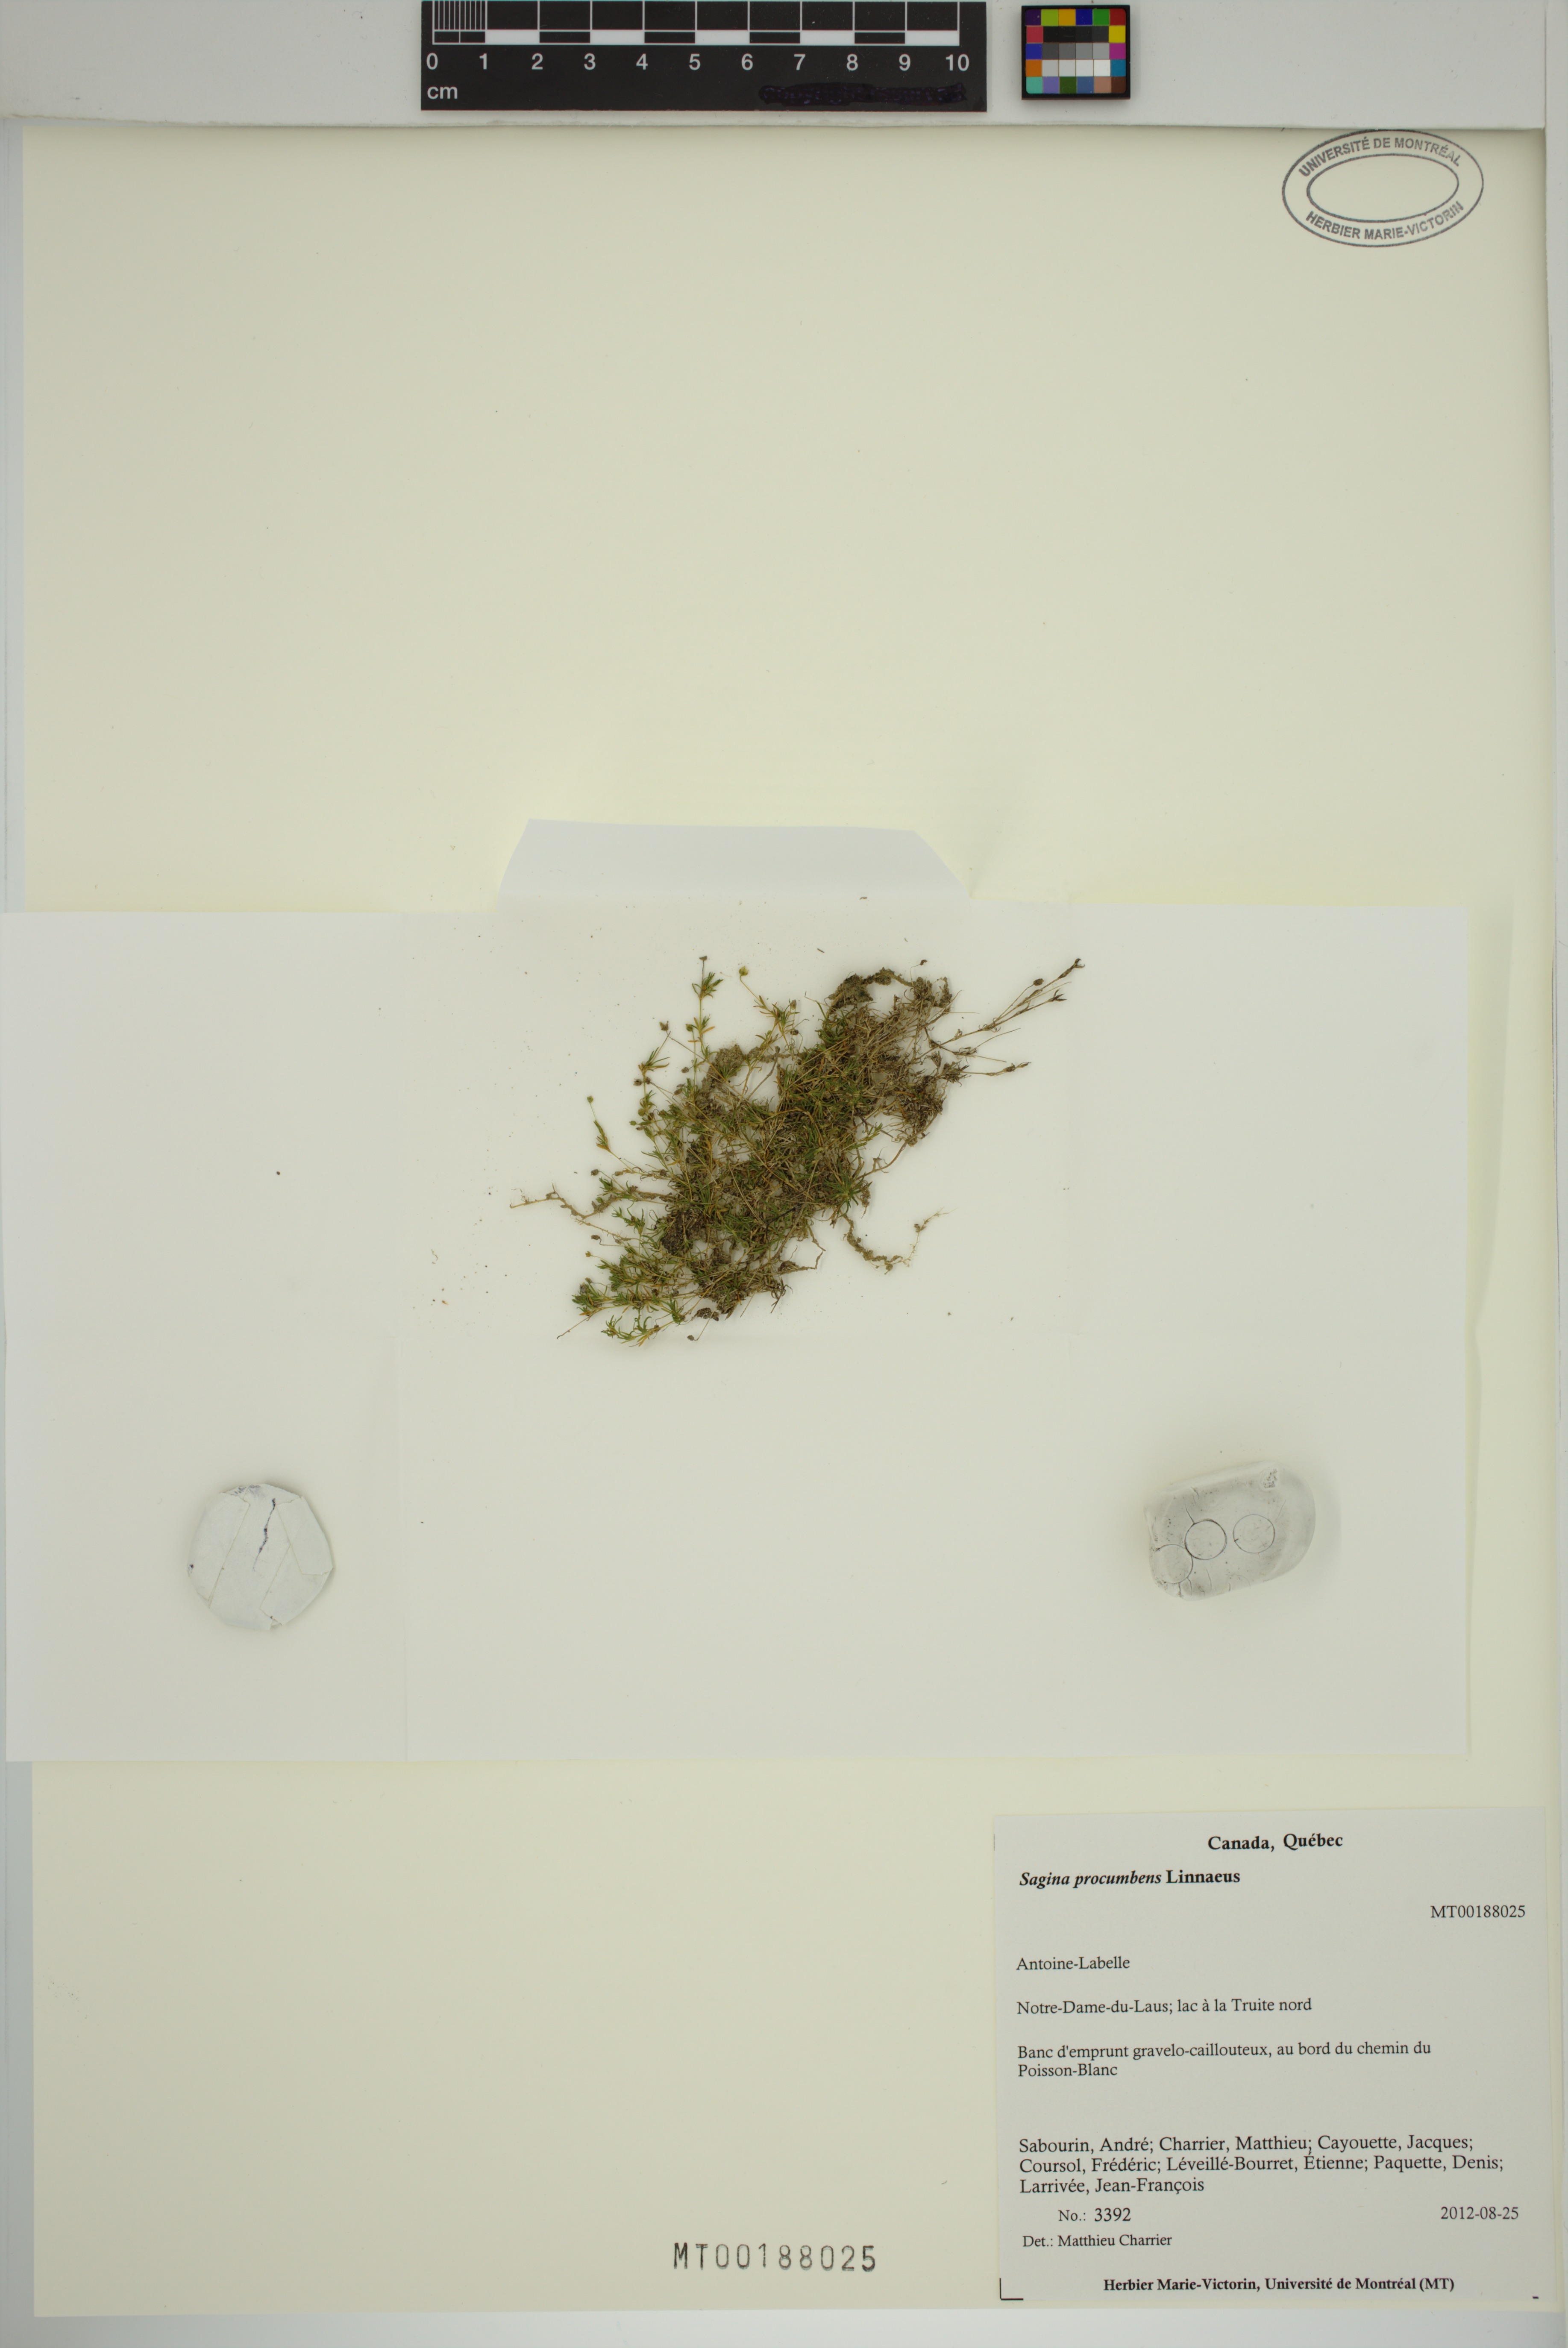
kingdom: Plantae
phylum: Tracheophyta
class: Magnoliopsida
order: Caryophyllales
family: Caryophyllaceae
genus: Sagina
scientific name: Sagina procumbens
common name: Procumbent pearlwort
